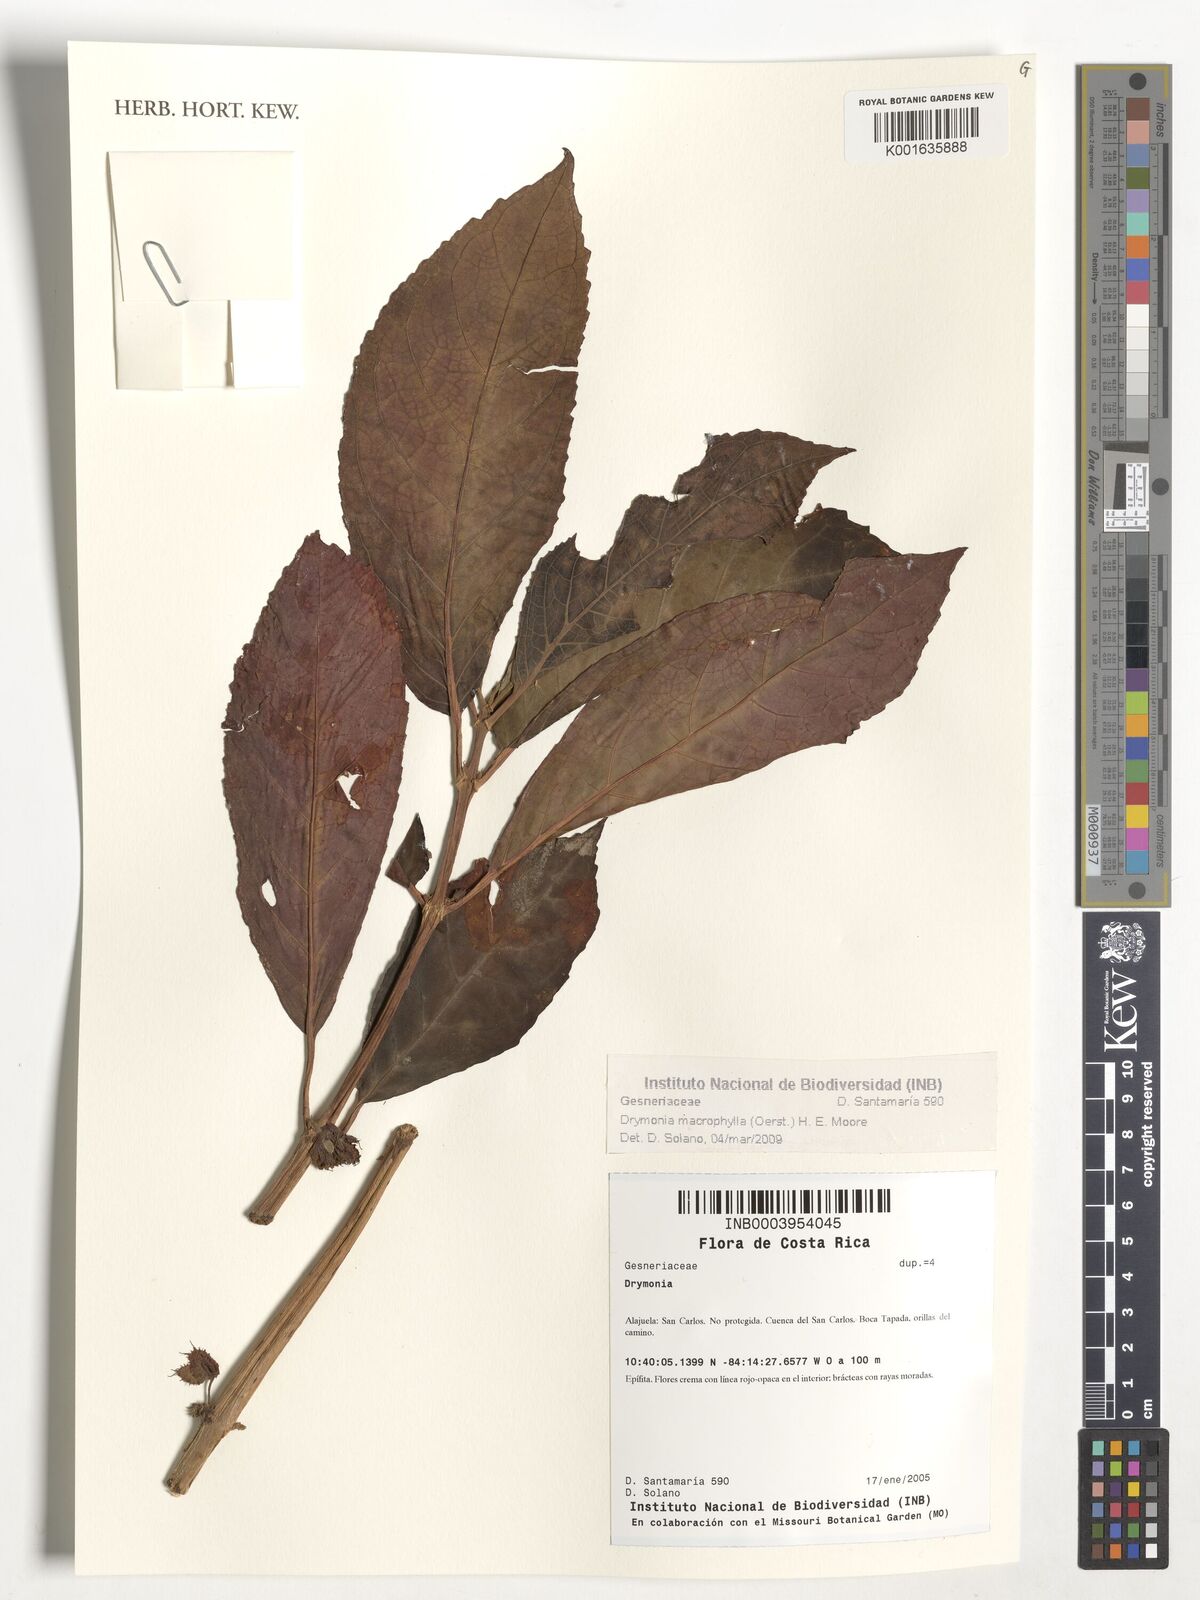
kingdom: Plantae
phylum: Tracheophyta
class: Magnoliopsida
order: Lamiales
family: Gesneriaceae
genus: Drymonia
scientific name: Drymonia macrophylla
